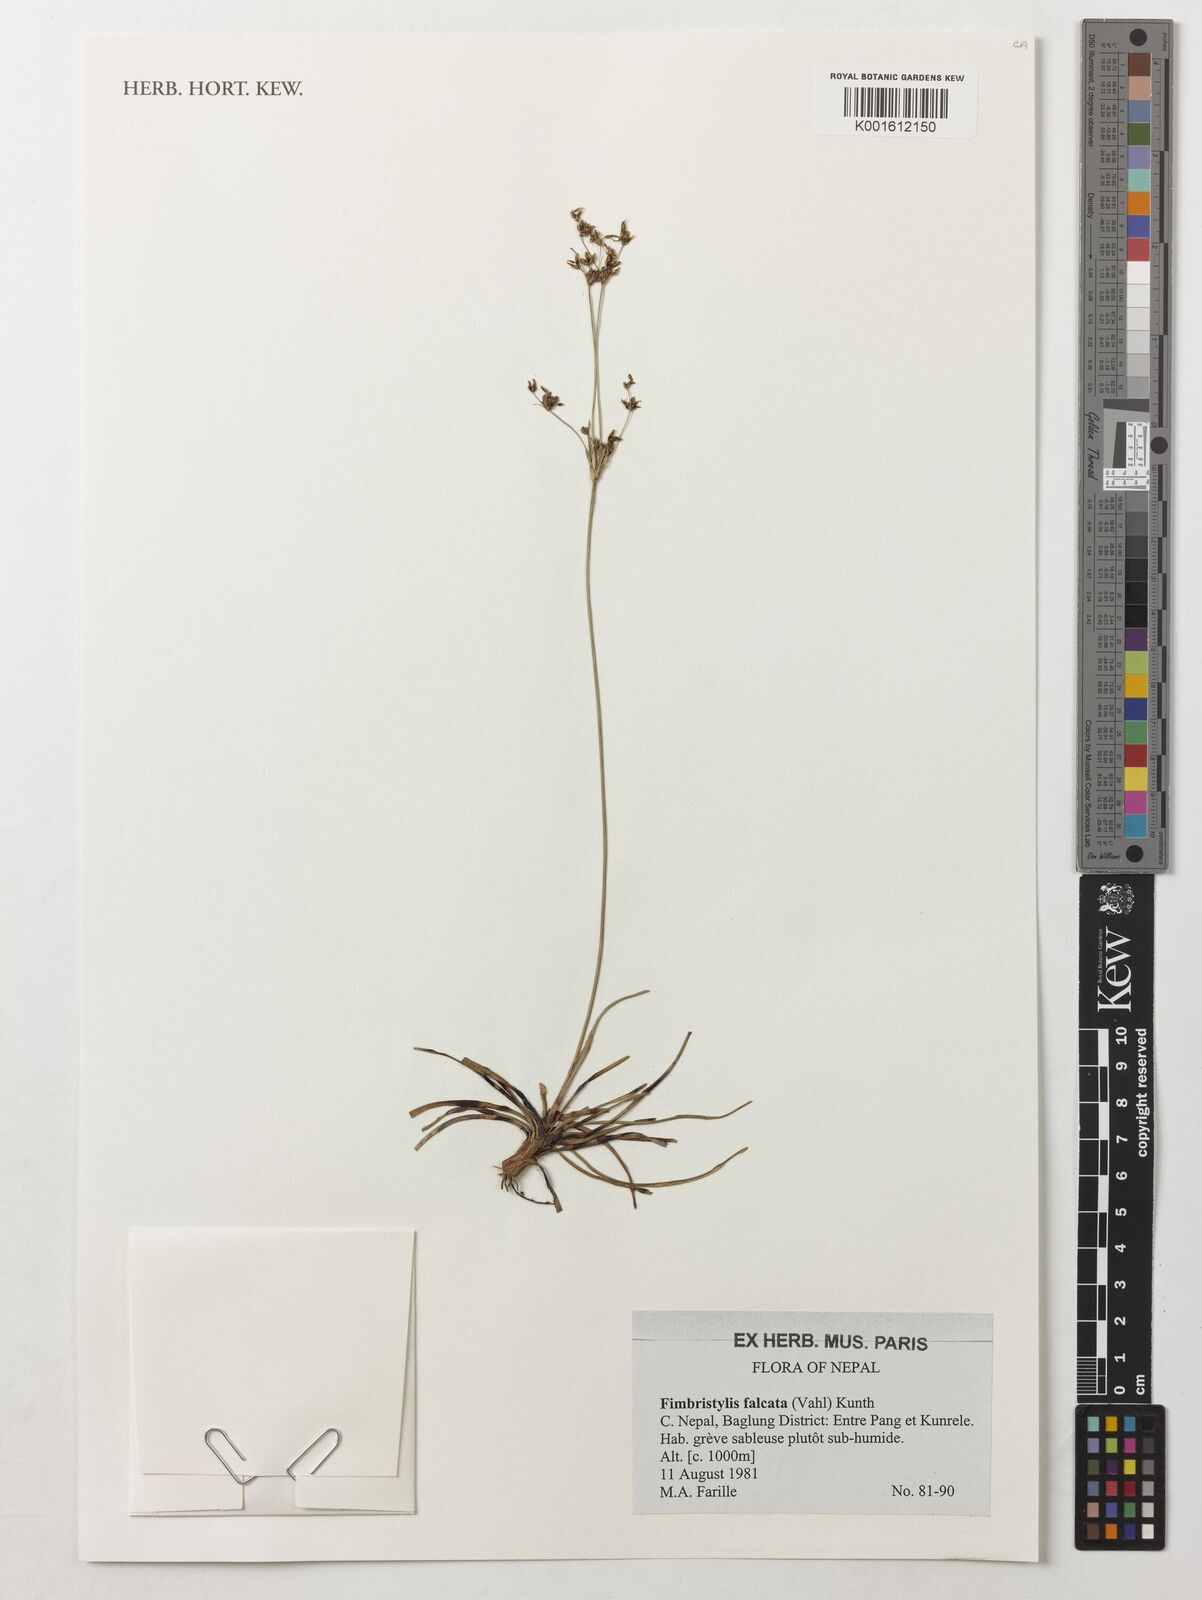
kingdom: Plantae
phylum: Tracheophyta
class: Liliopsida
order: Poales
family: Cyperaceae
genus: Fimbristylis
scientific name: Fimbristylis falcata
